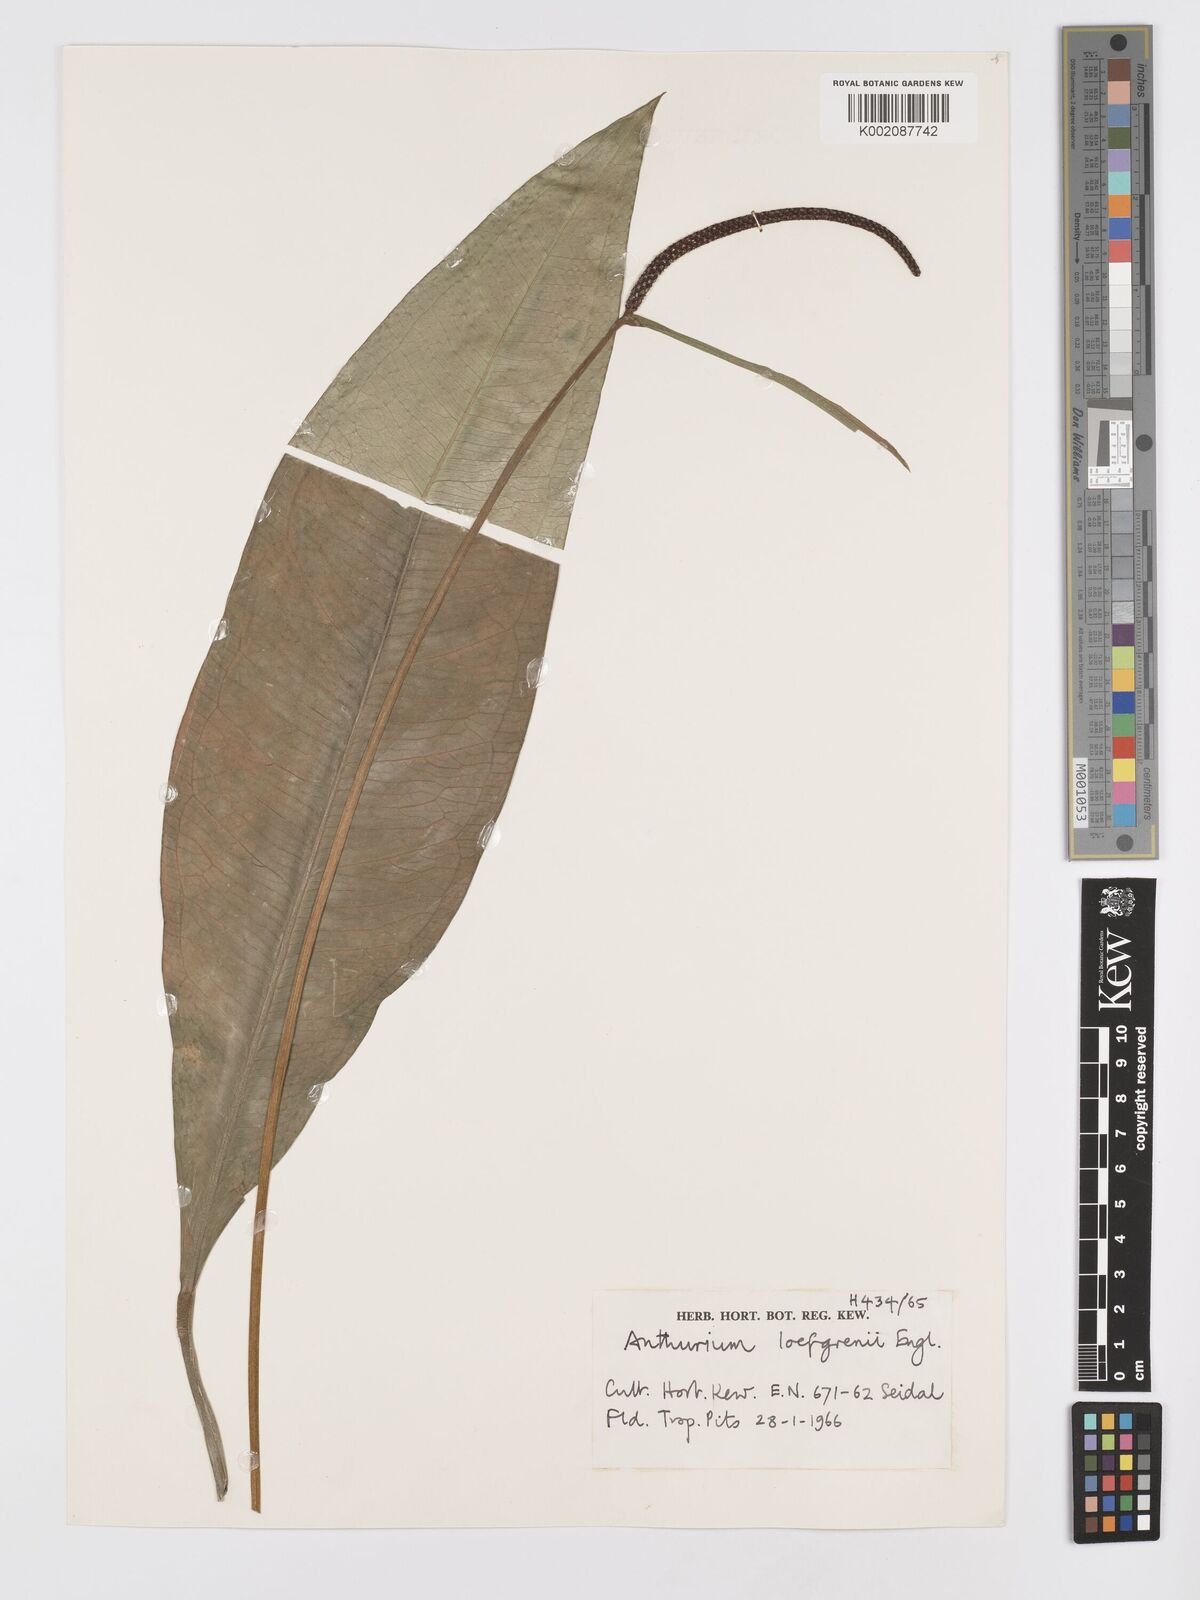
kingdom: Plantae
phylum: Tracheophyta
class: Liliopsida
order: Alismatales
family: Araceae
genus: Anthurium
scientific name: Anthurium loefgrenii
